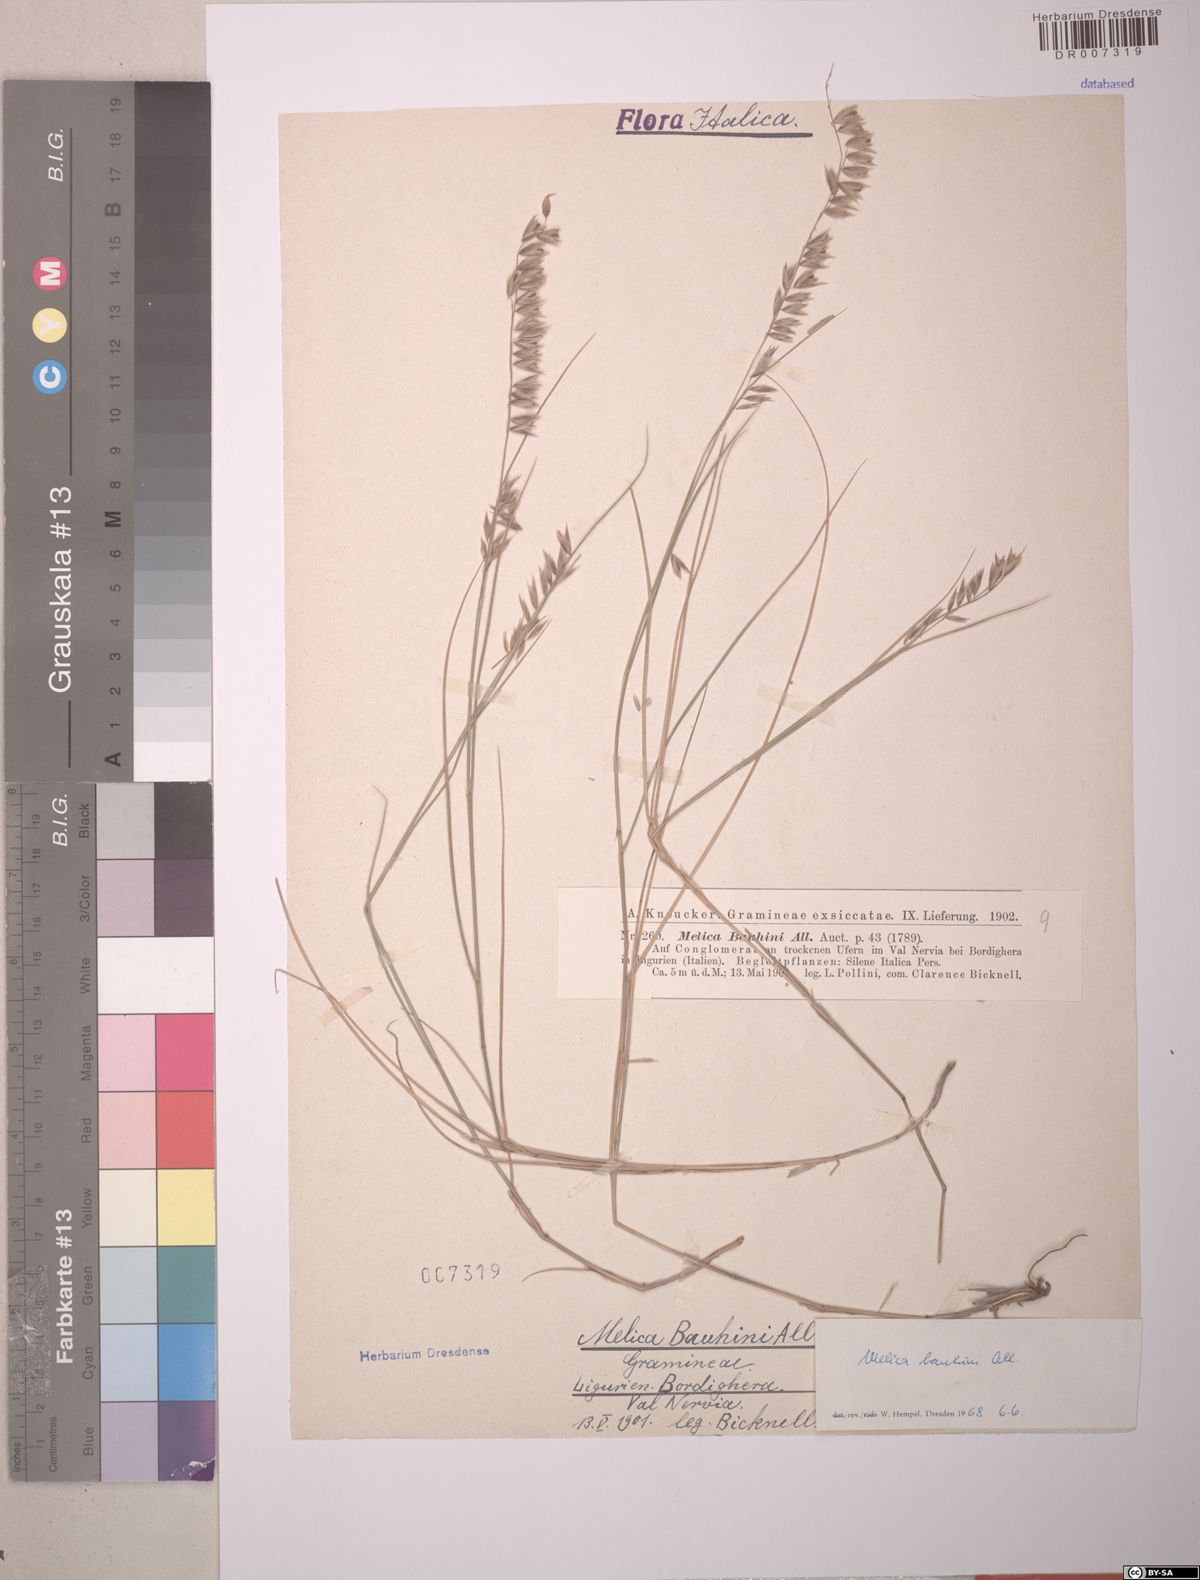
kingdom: Plantae
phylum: Tracheophyta
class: Liliopsida
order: Poales
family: Poaceae
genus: Melica
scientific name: Melica amethystina
